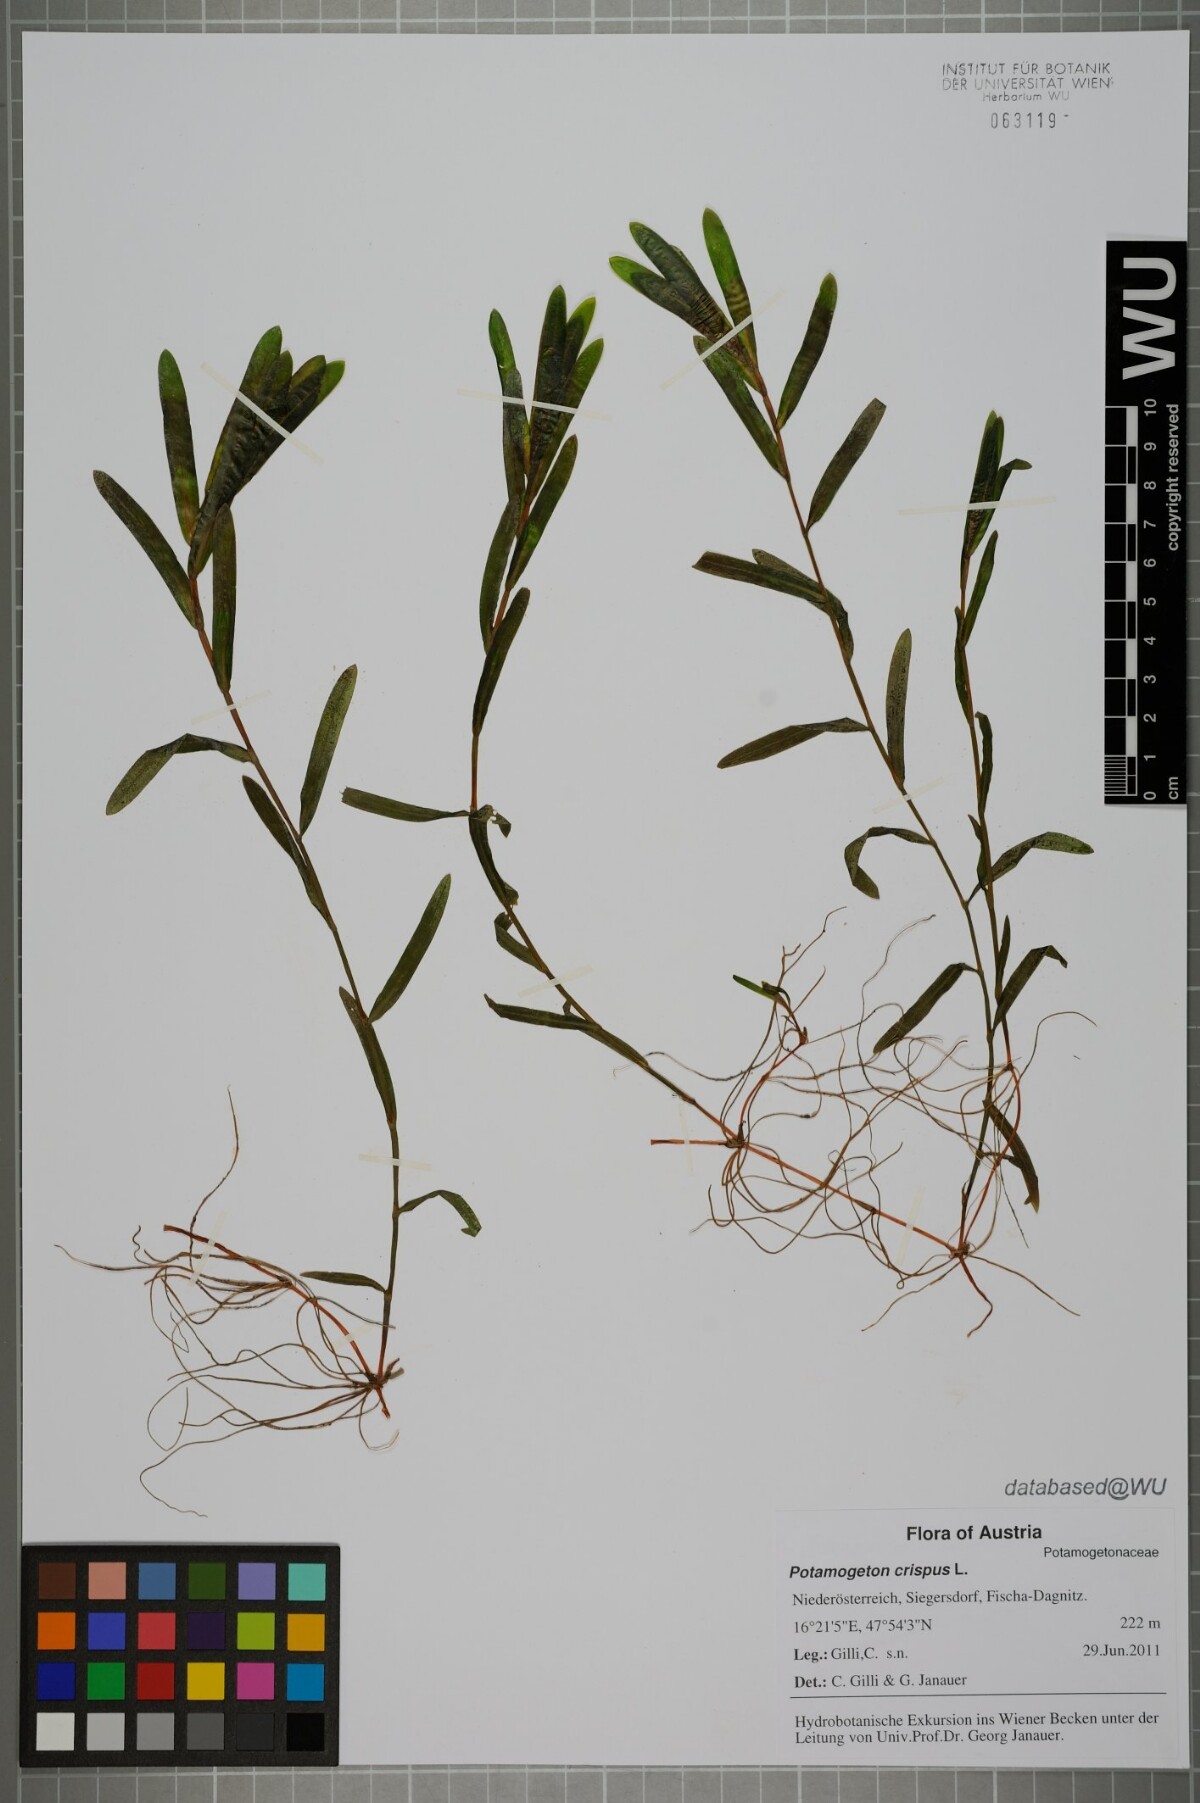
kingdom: Plantae
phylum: Tracheophyta
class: Liliopsida
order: Alismatales
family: Potamogetonaceae
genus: Potamogeton
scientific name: Potamogeton crispus
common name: Curled pondweed
